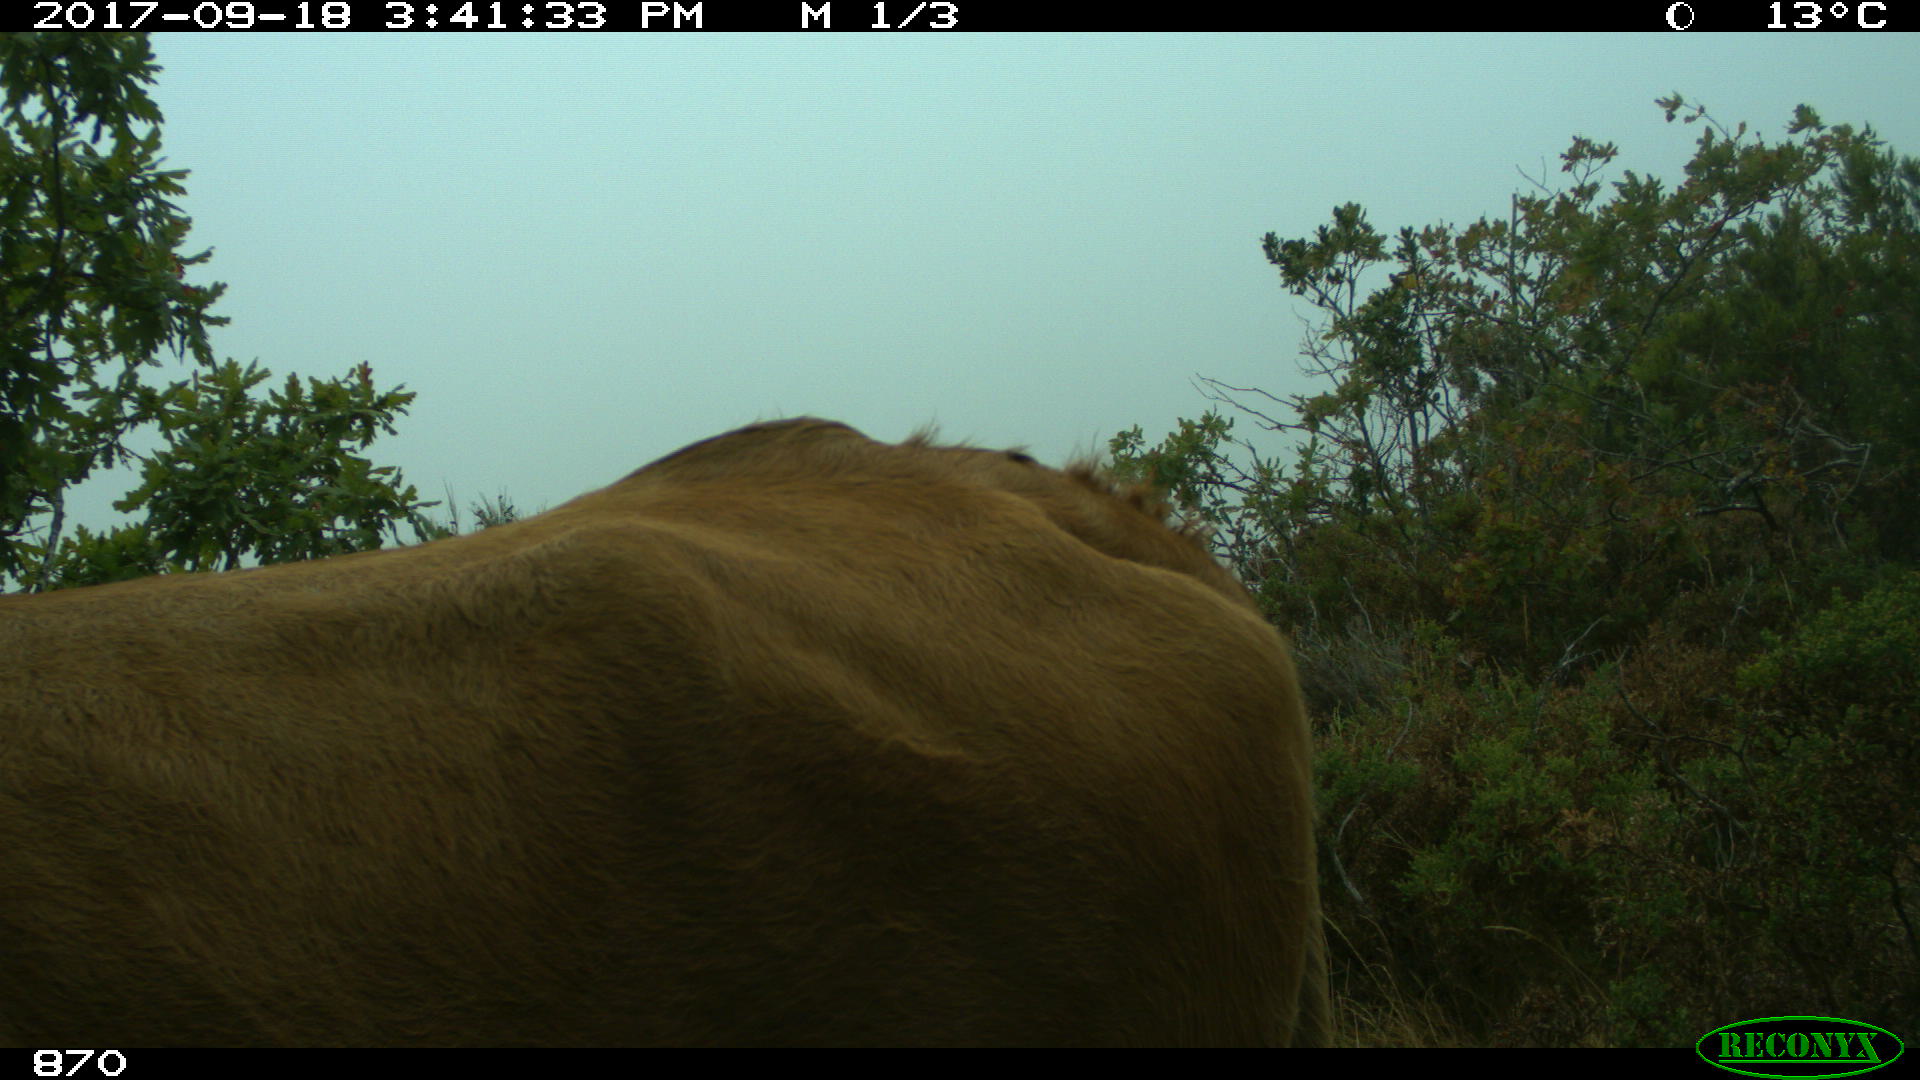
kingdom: Animalia
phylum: Chordata
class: Mammalia
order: Artiodactyla
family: Bovidae
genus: Bos
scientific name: Bos taurus
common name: Domesticated cattle
